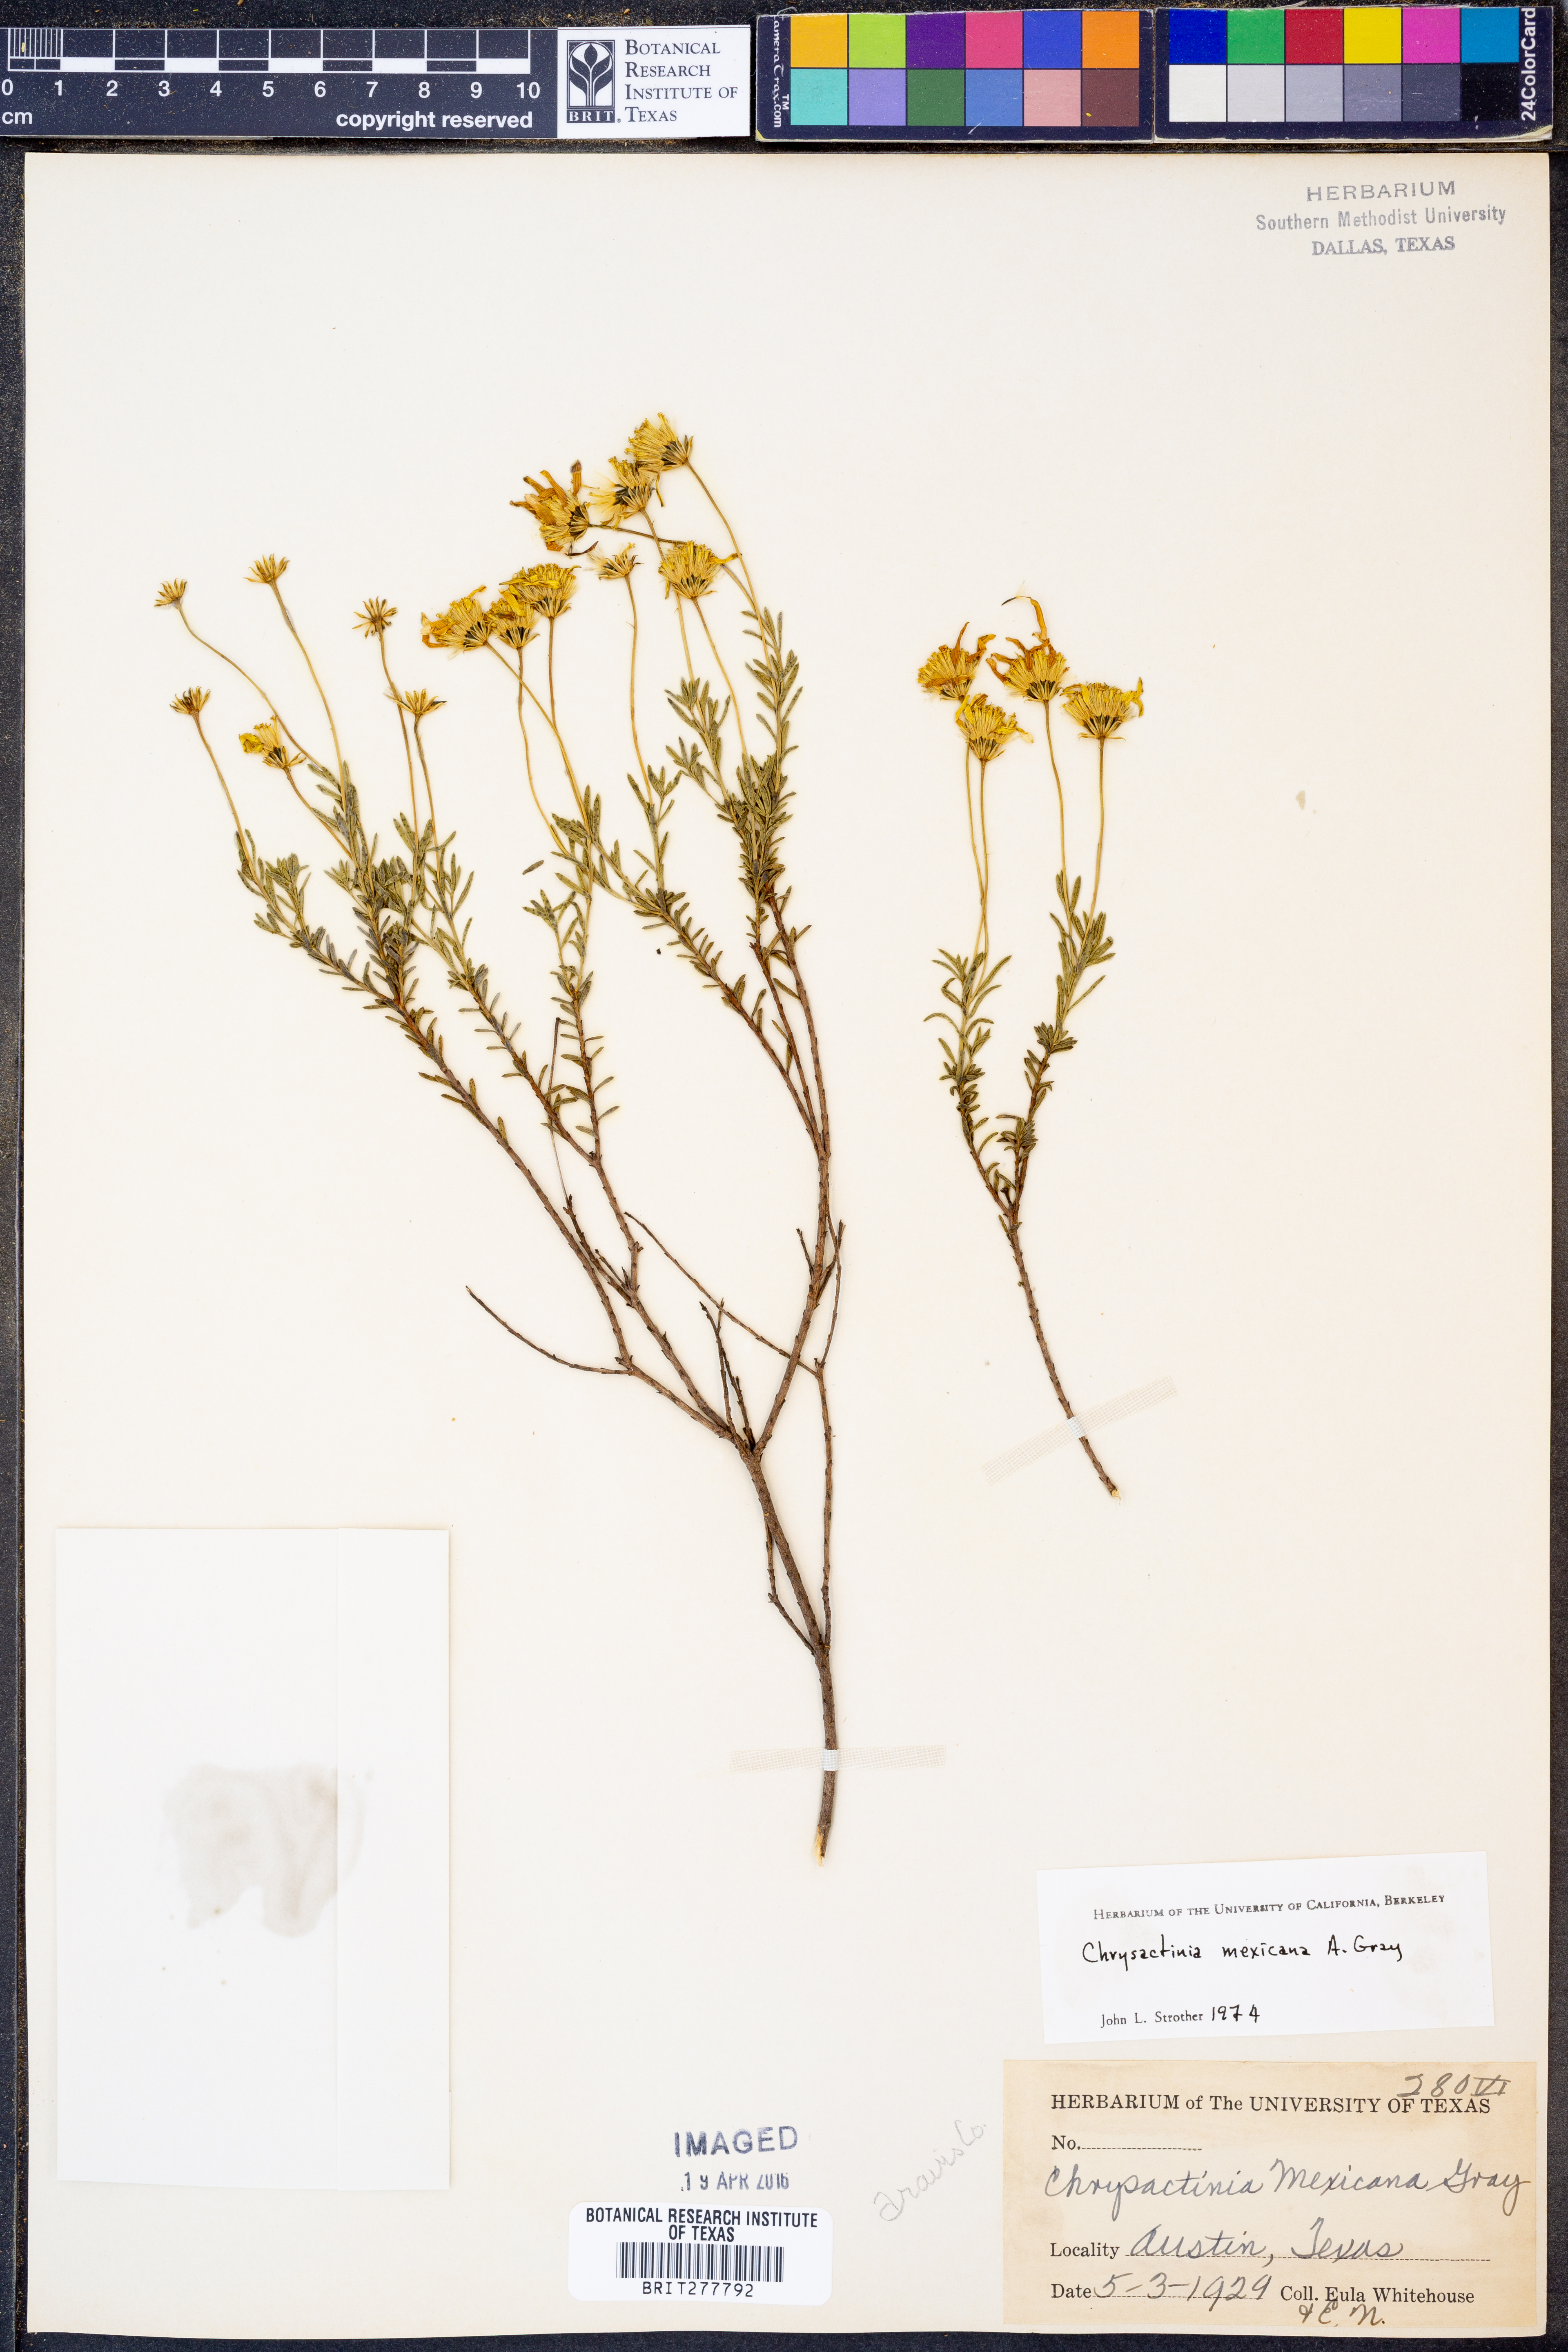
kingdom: Plantae
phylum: Tracheophyta
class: Magnoliopsida
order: Asterales
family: Asteraceae
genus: Chrysactinia
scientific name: Chrysactinia mexicana
